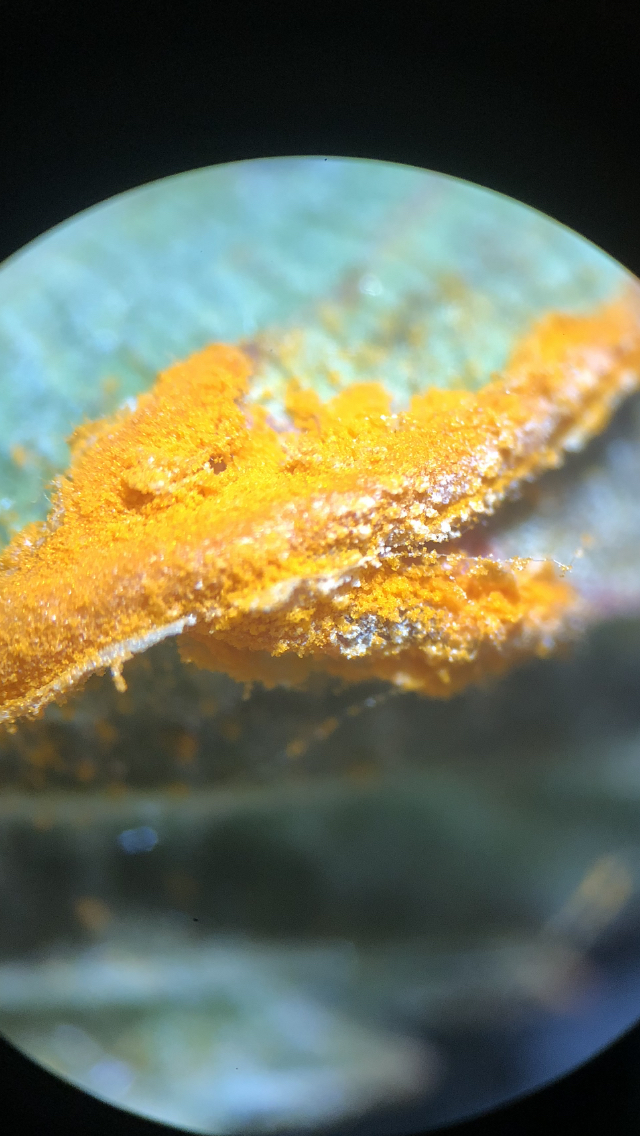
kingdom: Fungi
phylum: Basidiomycota
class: Pucciniomycetes
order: Pucciniales
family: Raveneliaceae
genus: Triphragmium
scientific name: Triphragmium ulmariae
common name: almindelig mjødurtrust
